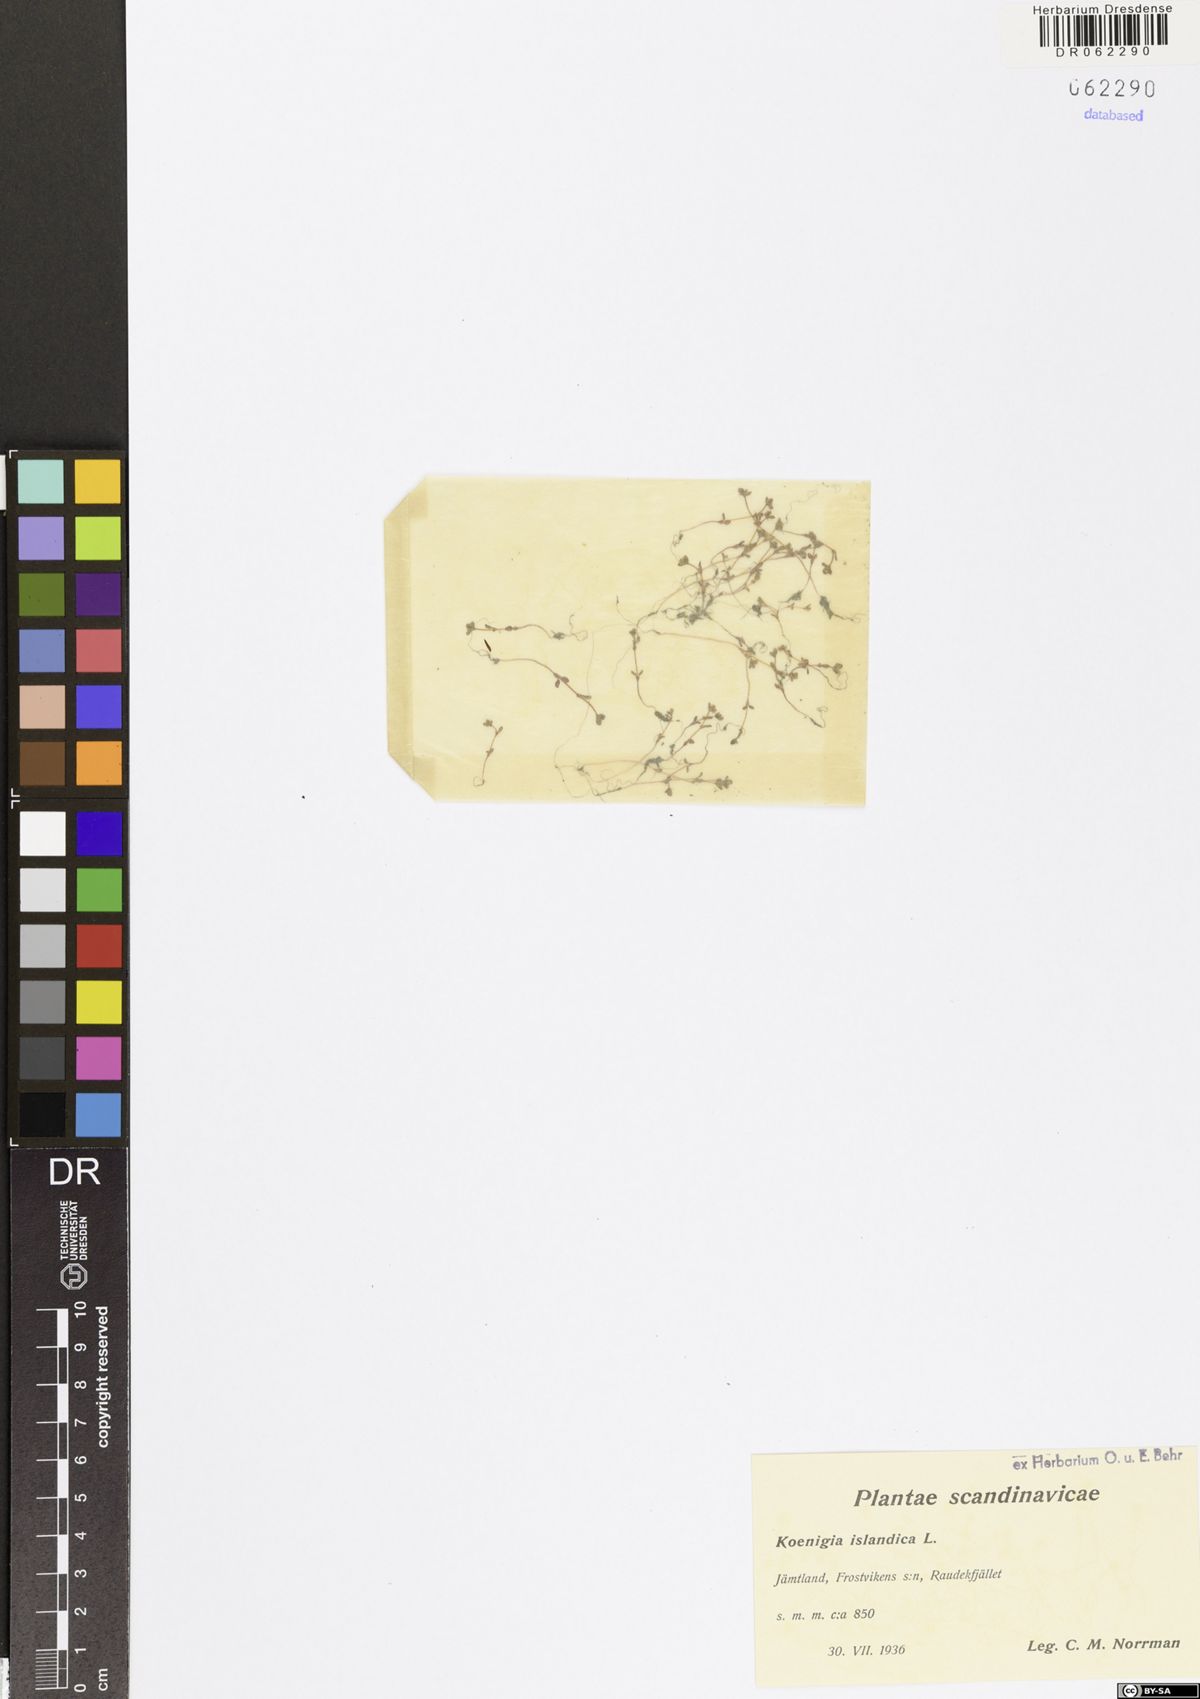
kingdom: Plantae
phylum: Tracheophyta
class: Magnoliopsida
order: Caryophyllales
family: Polygonaceae
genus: Koenigia
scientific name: Koenigia islandica
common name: Iceland-purslane
